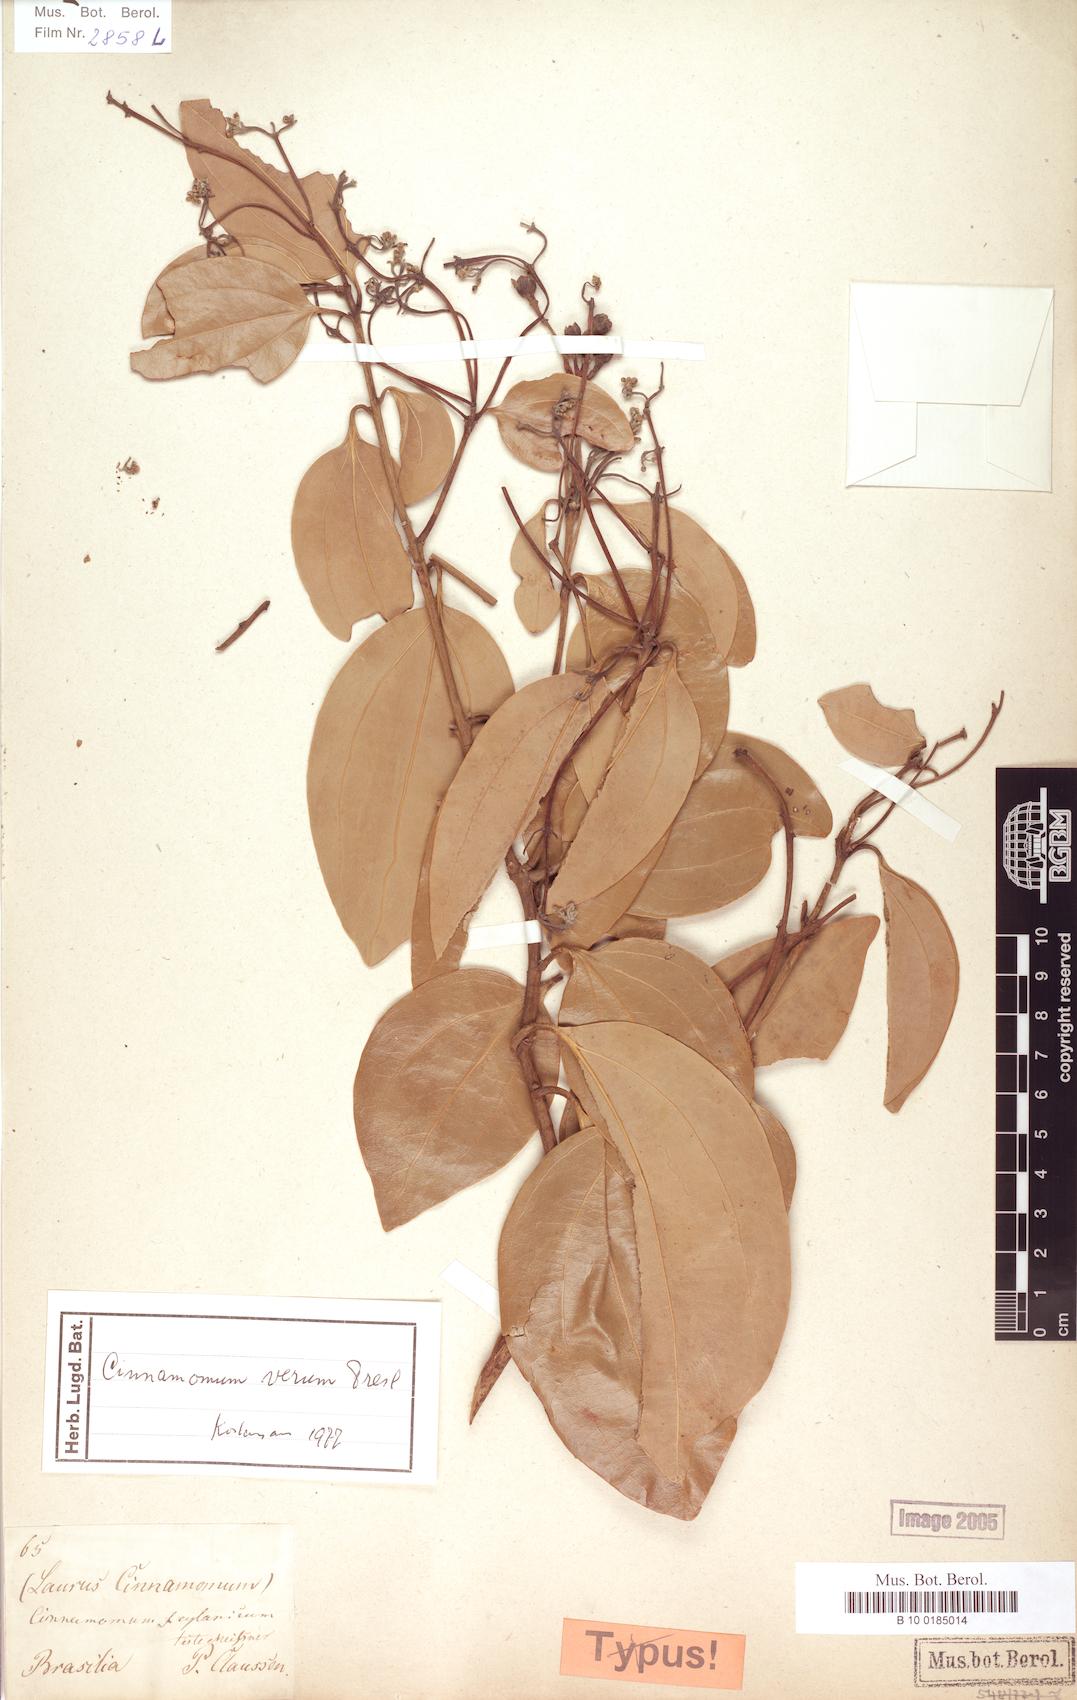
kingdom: Plantae
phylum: Tracheophyta
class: Magnoliopsida
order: Laurales
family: Lauraceae
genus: Cinnamomum
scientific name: Cinnamomum verum
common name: Cinnamon
